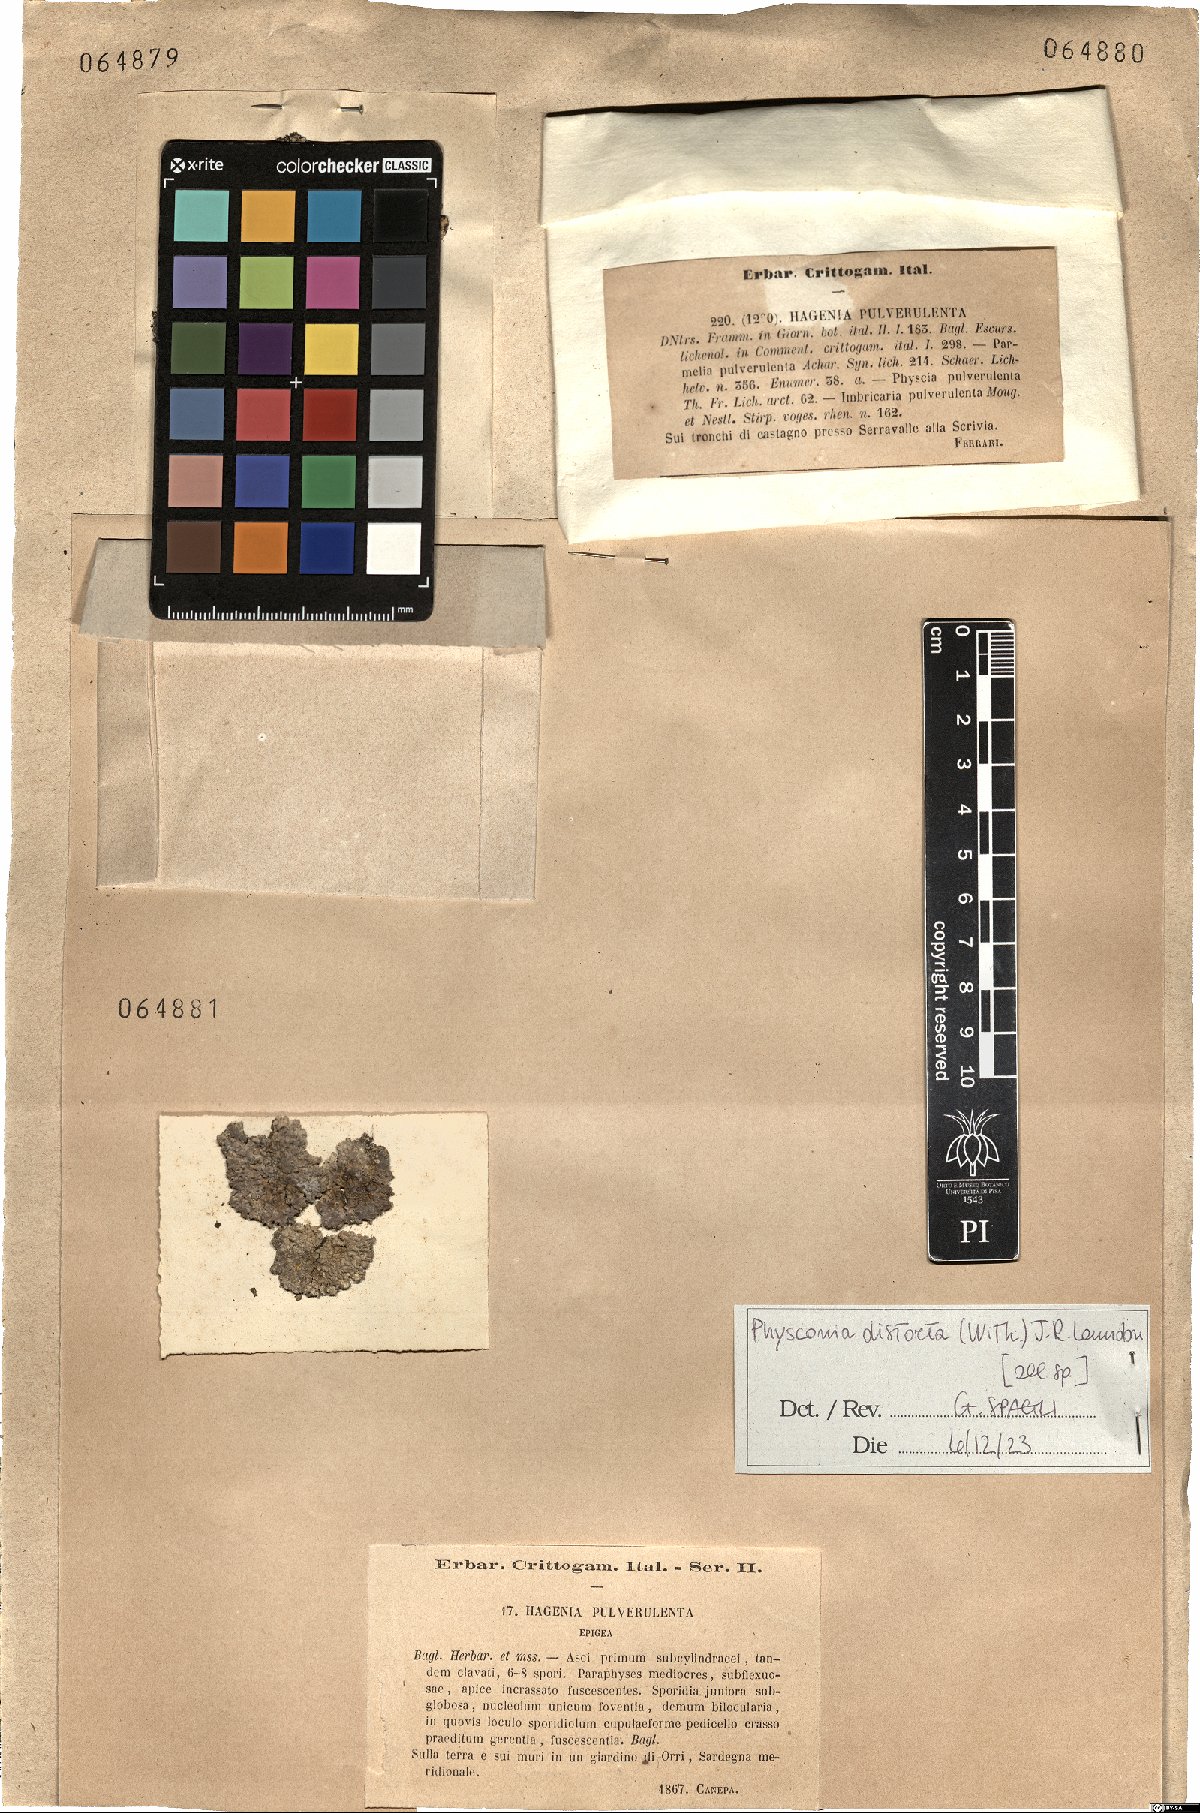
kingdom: Fungi
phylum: Ascomycota
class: Lecanoromycetes
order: Caliciales
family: Physciaceae
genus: Physconia
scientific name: Physconia distorta
